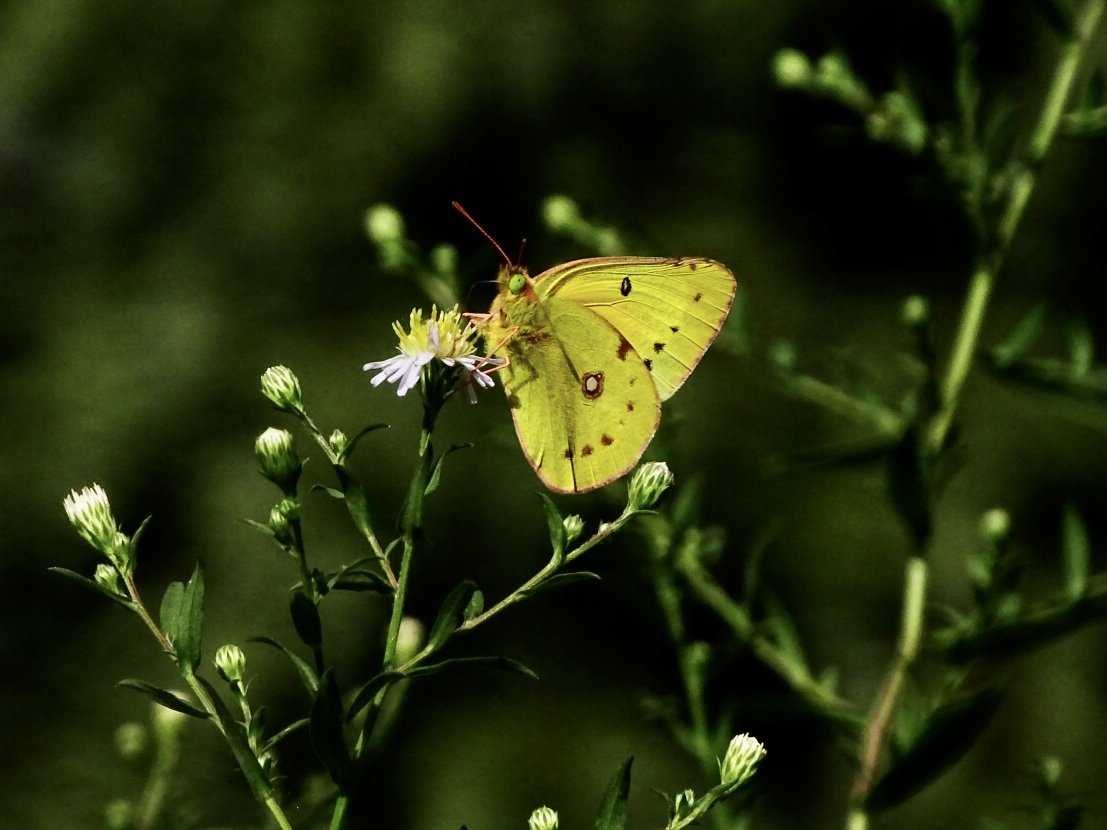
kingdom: Animalia
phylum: Arthropoda
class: Insecta
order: Lepidoptera
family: Pieridae
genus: Colias
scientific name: Colias eurytheme
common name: Orange Sulphur
